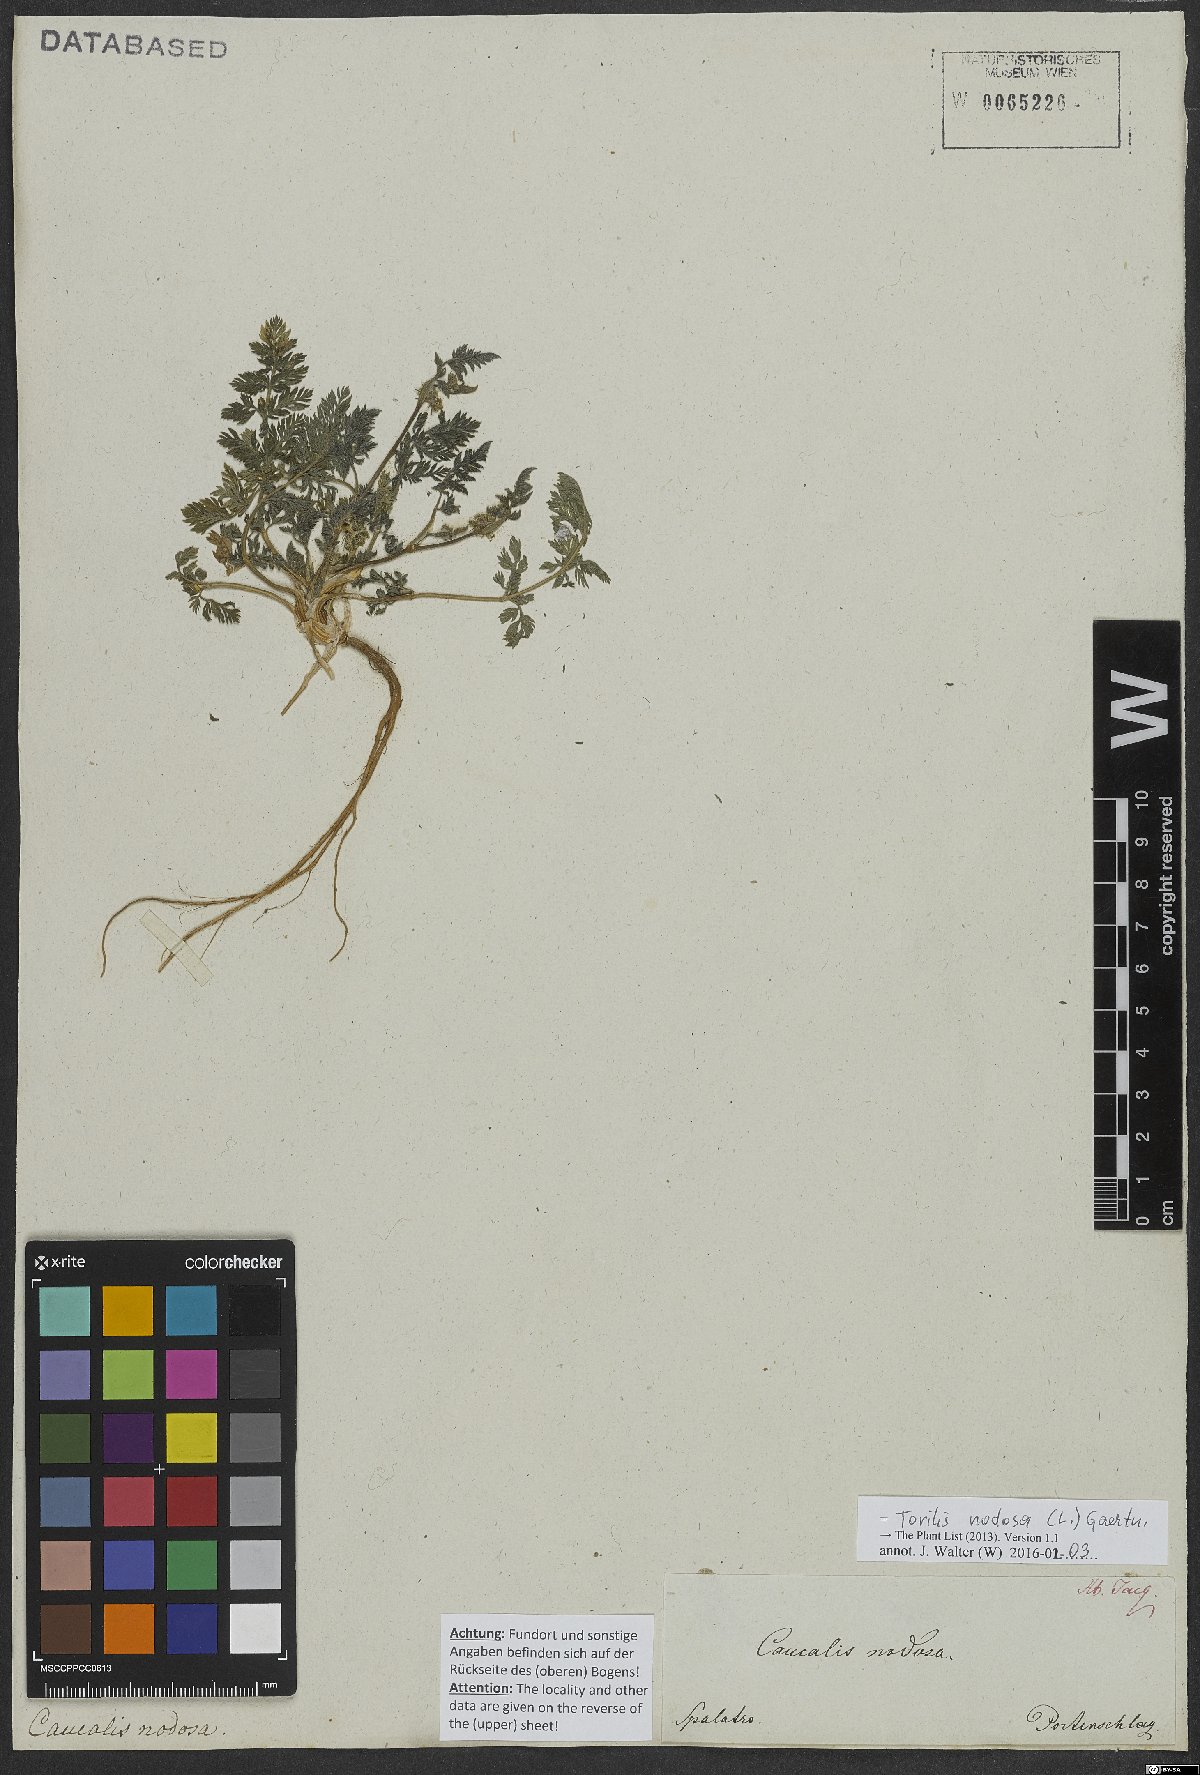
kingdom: Plantae
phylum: Tracheophyta
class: Magnoliopsida
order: Apiales
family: Apiaceae
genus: Torilis
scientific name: Torilis nodosa
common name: Knotted hedge-parsley
